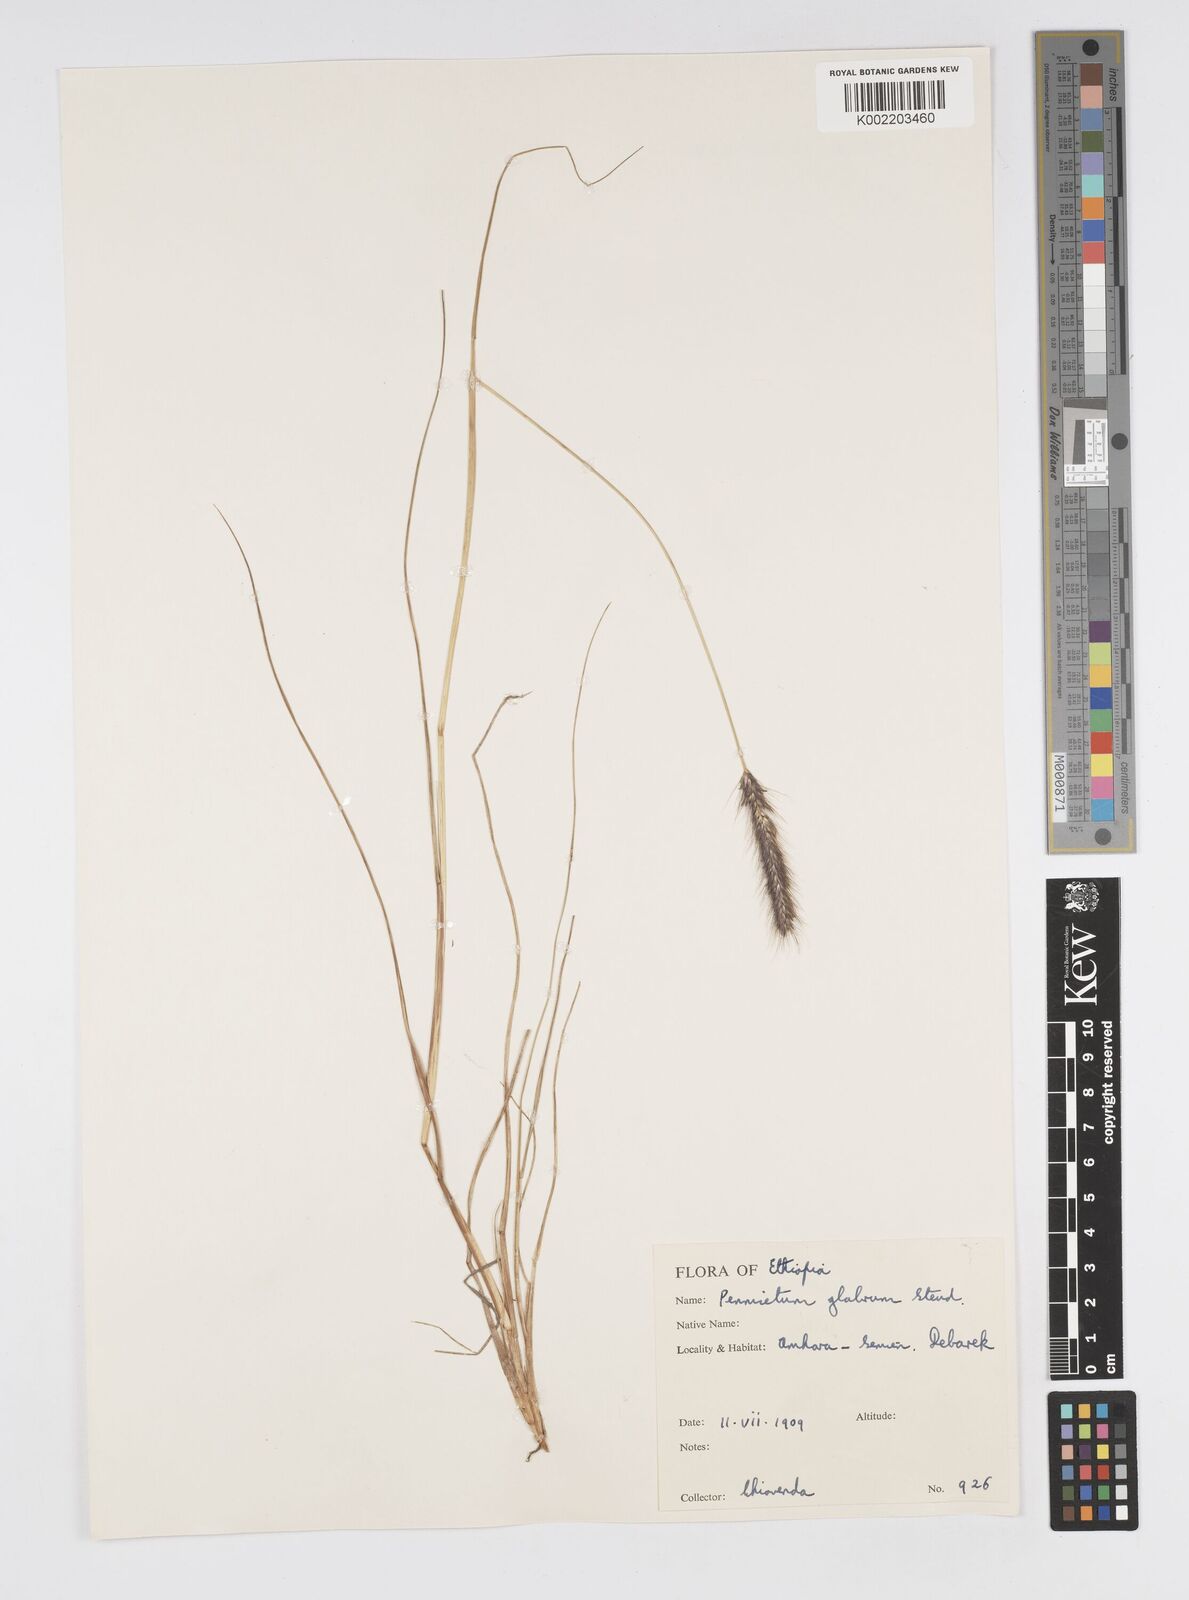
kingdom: Plantae
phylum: Tracheophyta
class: Liliopsida
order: Poales
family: Poaceae
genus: Cenchrus
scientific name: Cenchrus geniculatus
